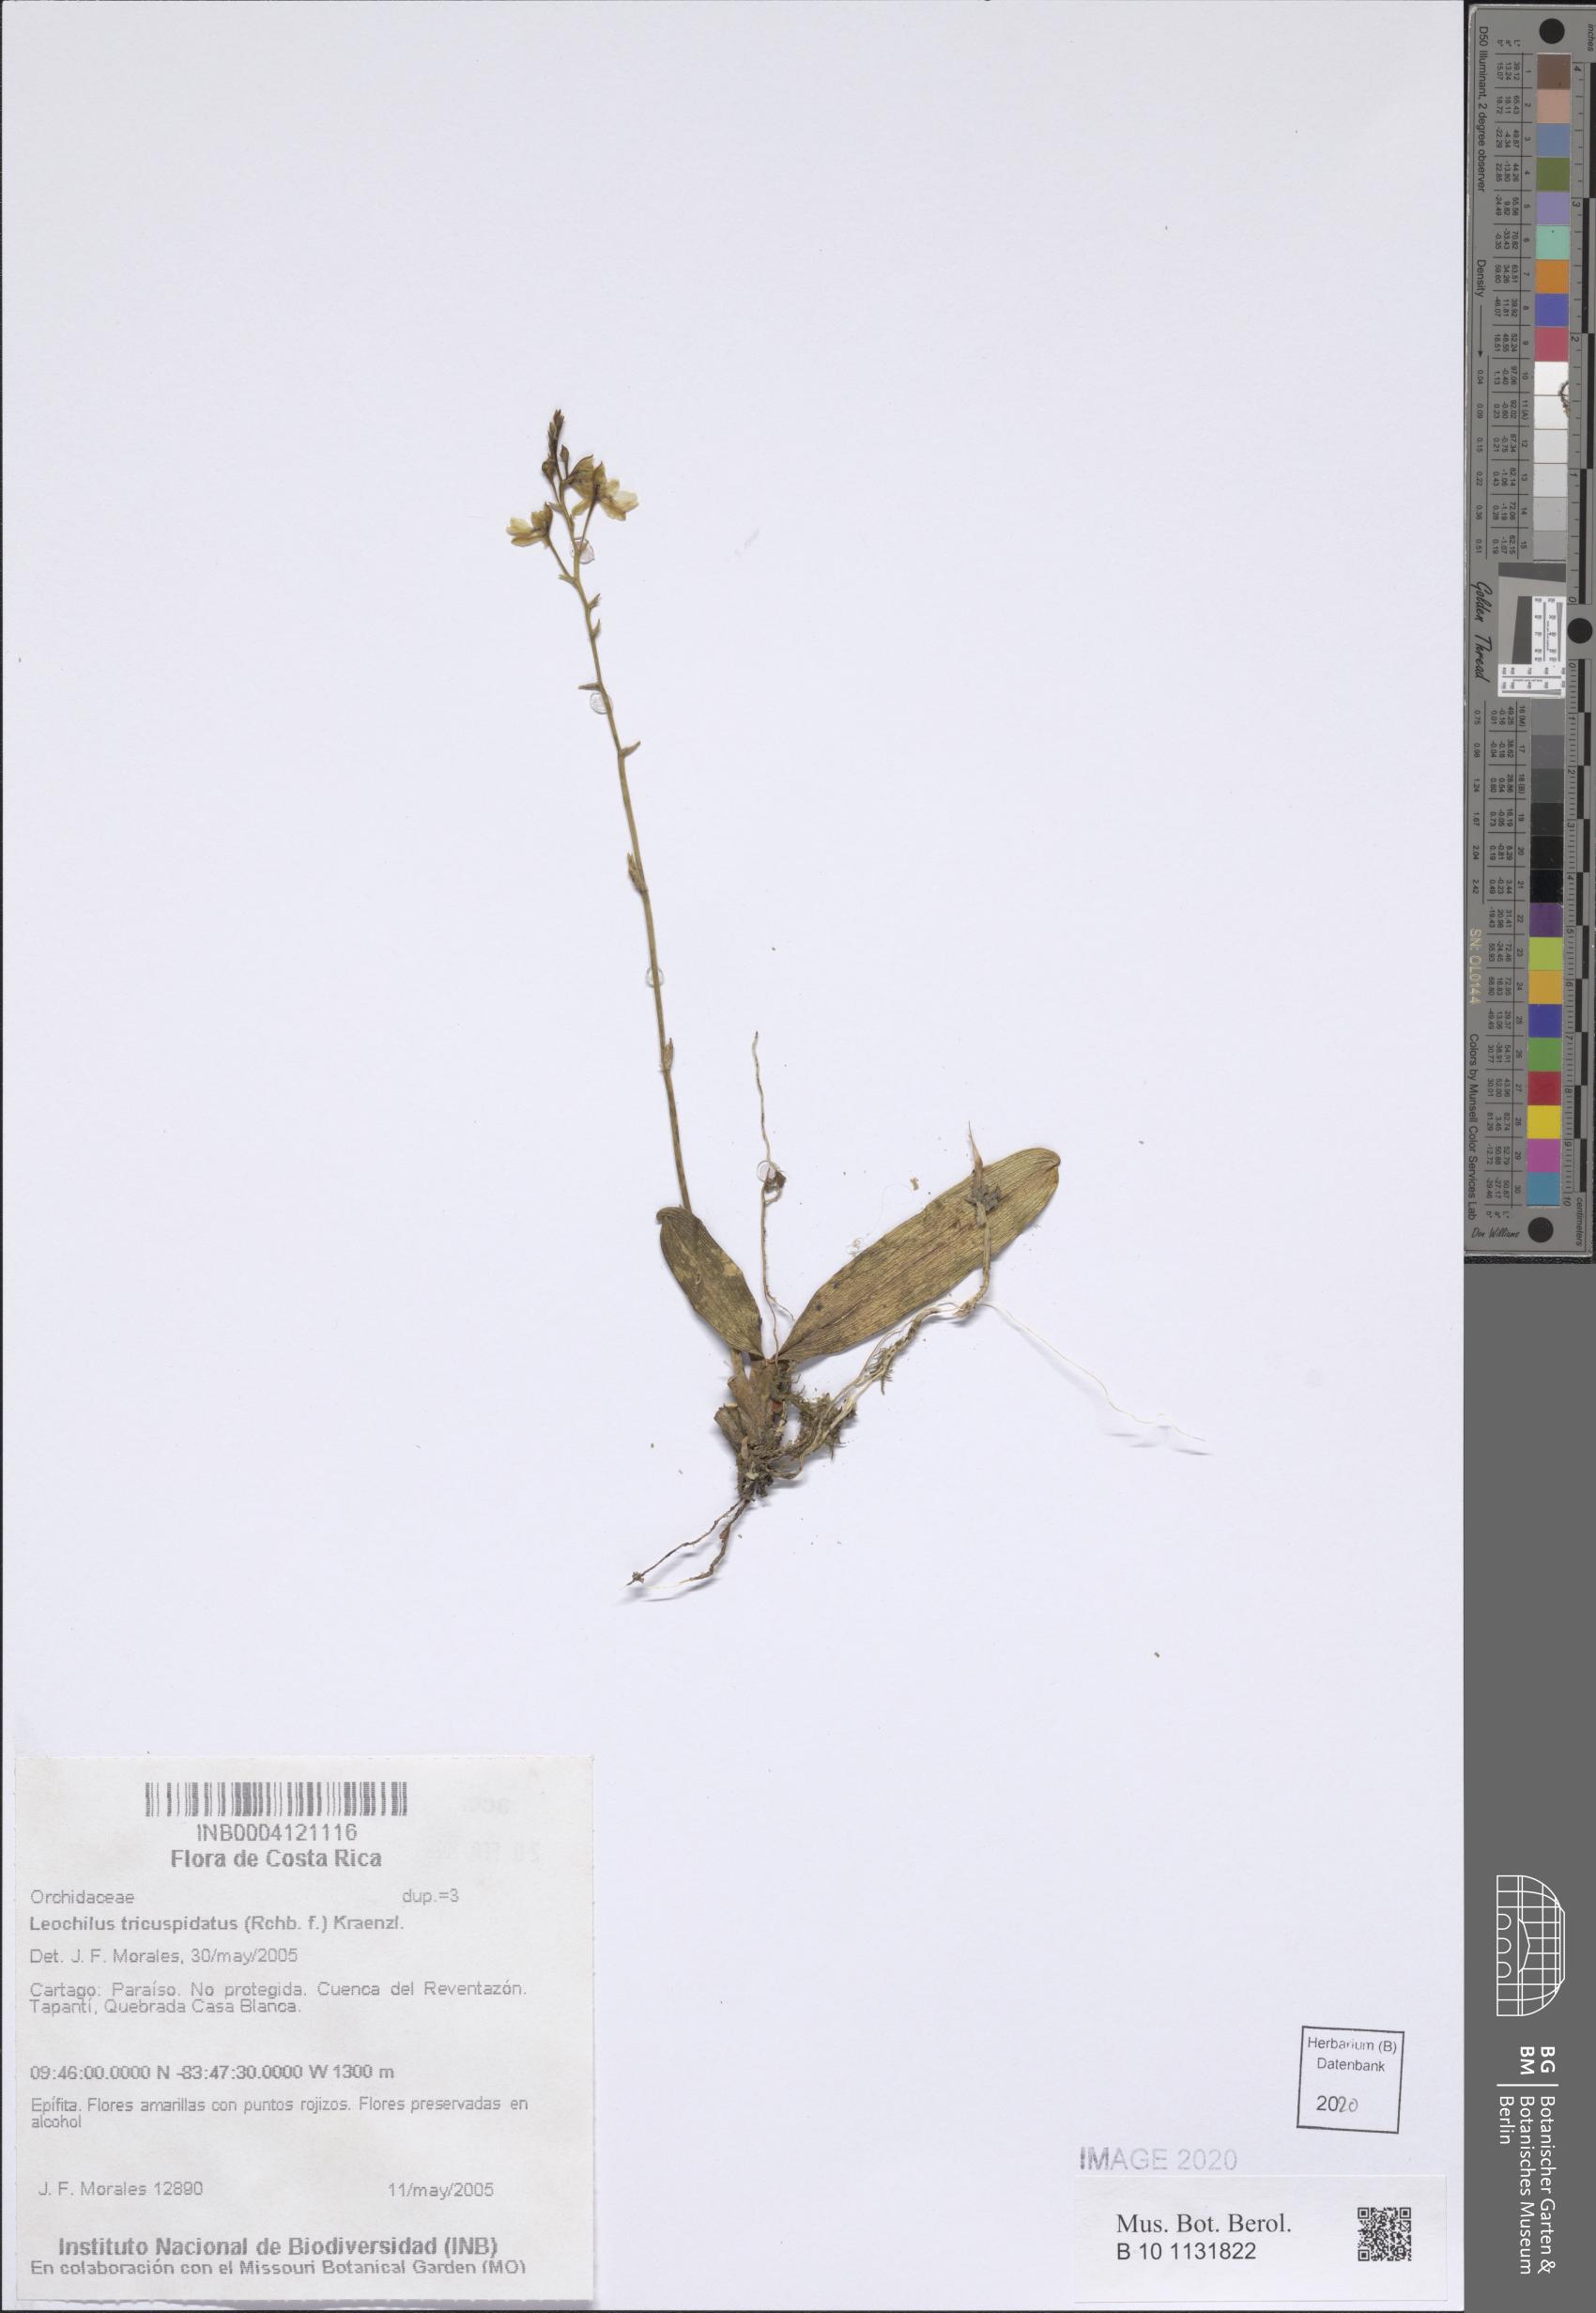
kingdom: Plantae
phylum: Tracheophyta
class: Liliopsida
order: Asparagales
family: Orchidaceae
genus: Leochilus
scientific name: Leochilus tricuspidatus
